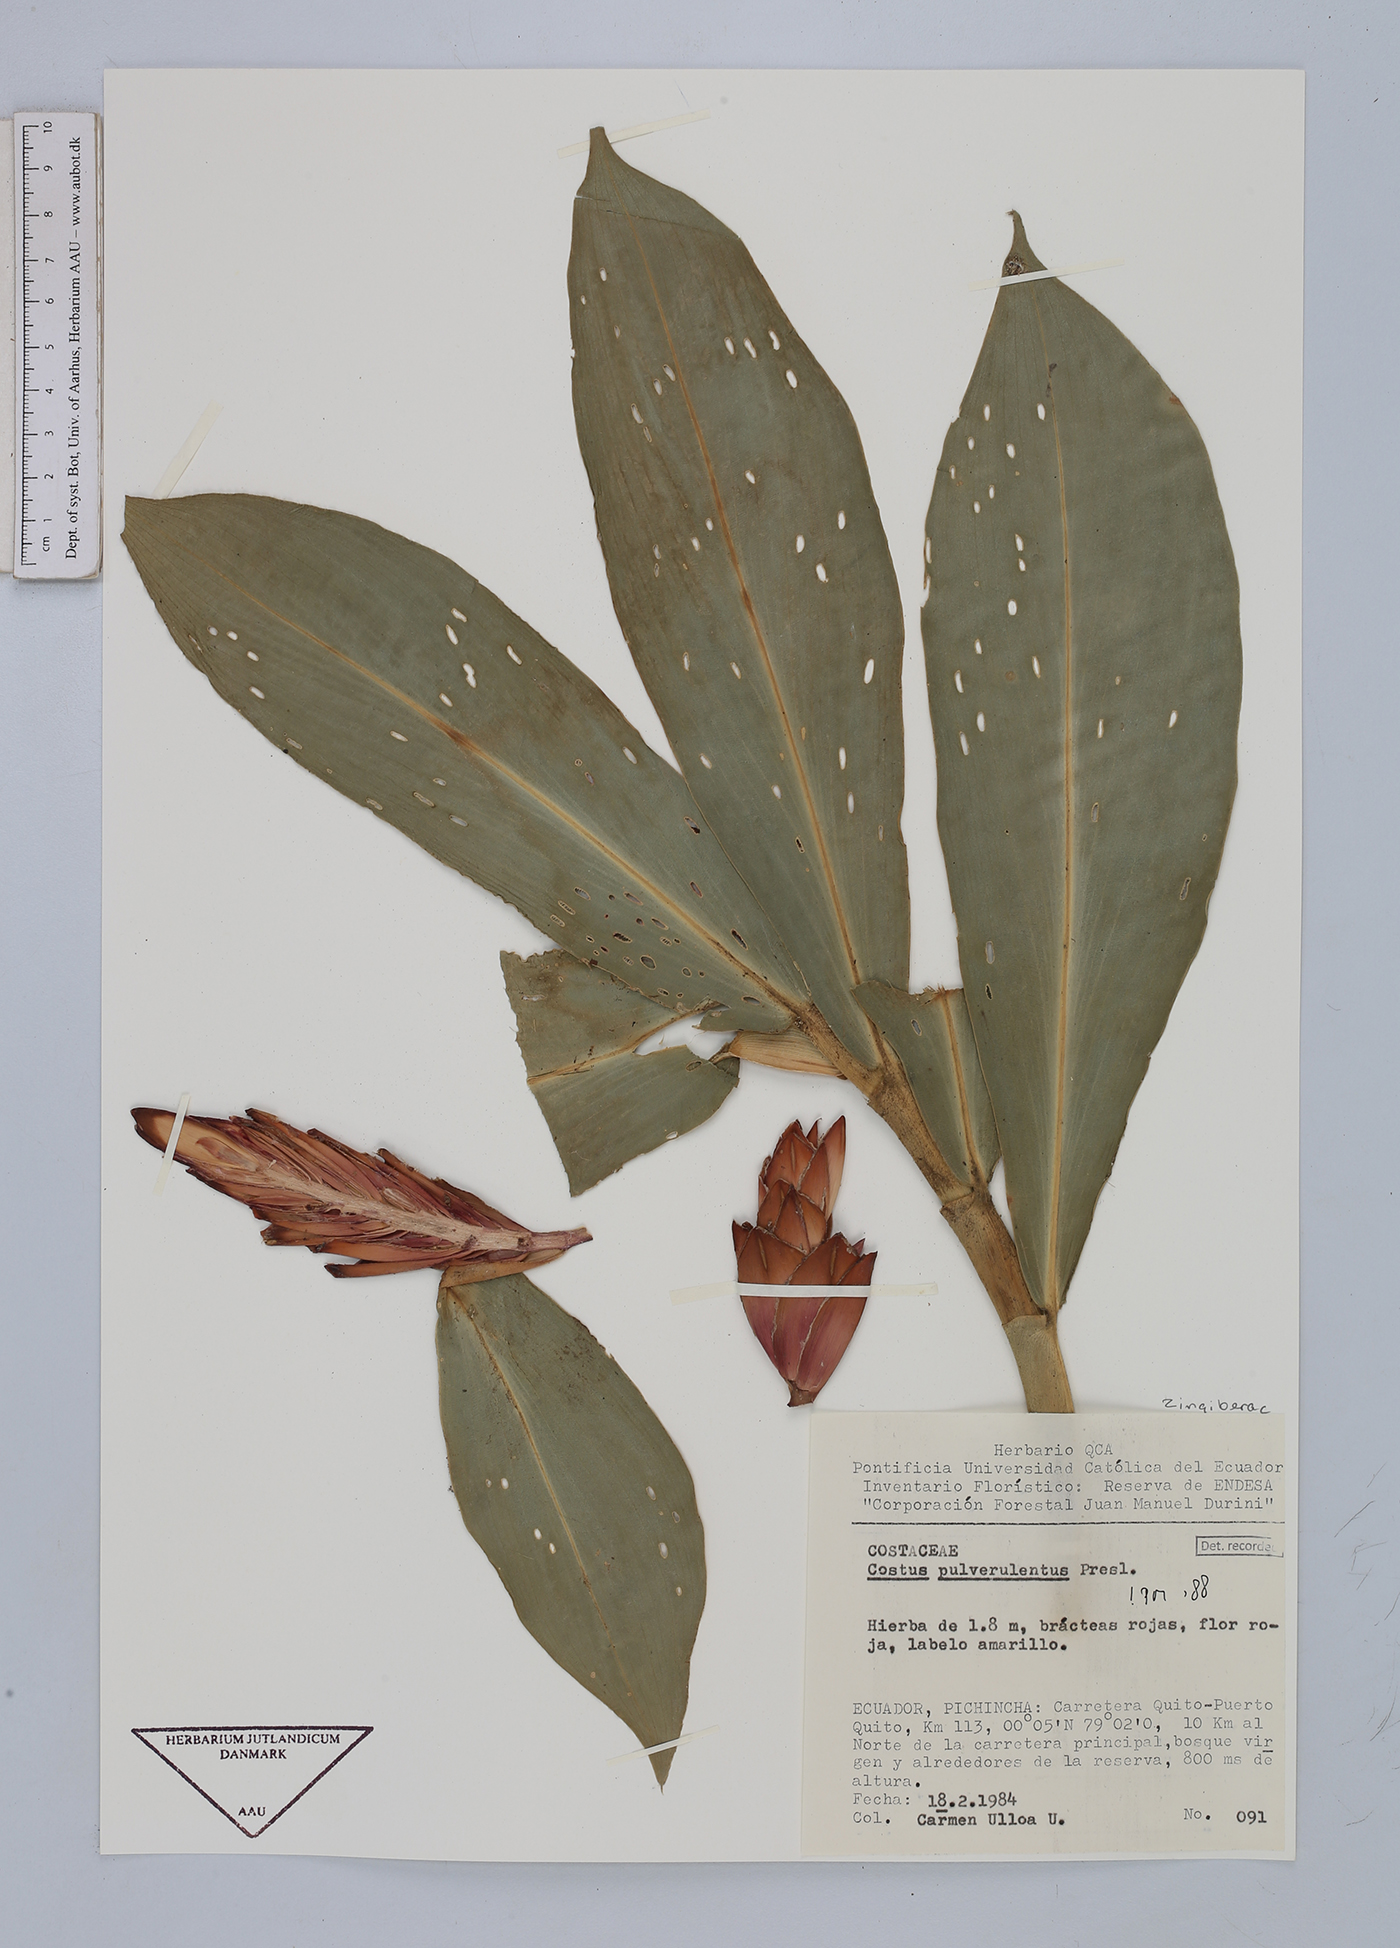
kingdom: Plantae
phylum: Tracheophyta
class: Liliopsida
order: Zingiberales
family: Costaceae
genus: Costus
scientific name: Costus pulverulentus
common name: Spiral ginger
